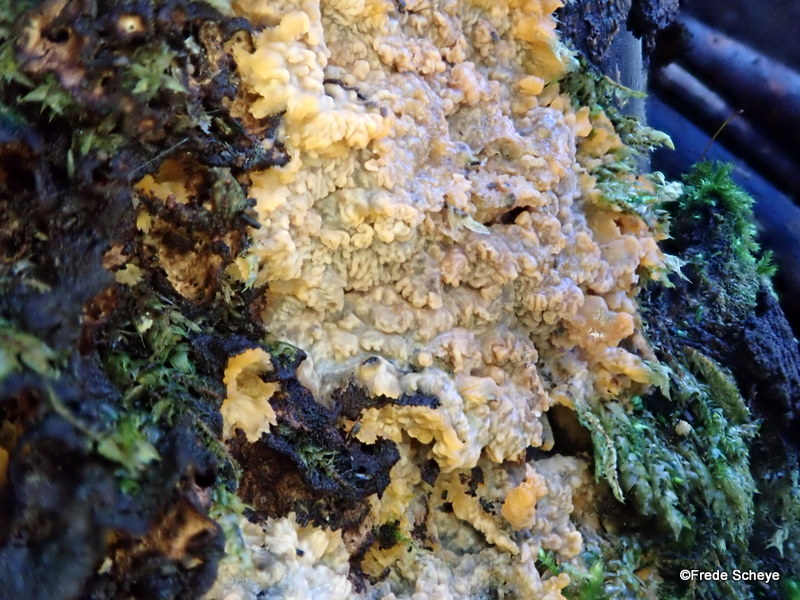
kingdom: Fungi
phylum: Basidiomycota
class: Agaricomycetes
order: Polyporales
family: Meruliaceae
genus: Phlebia
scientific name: Phlebia tremellosa
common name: bævrende åresvamp
